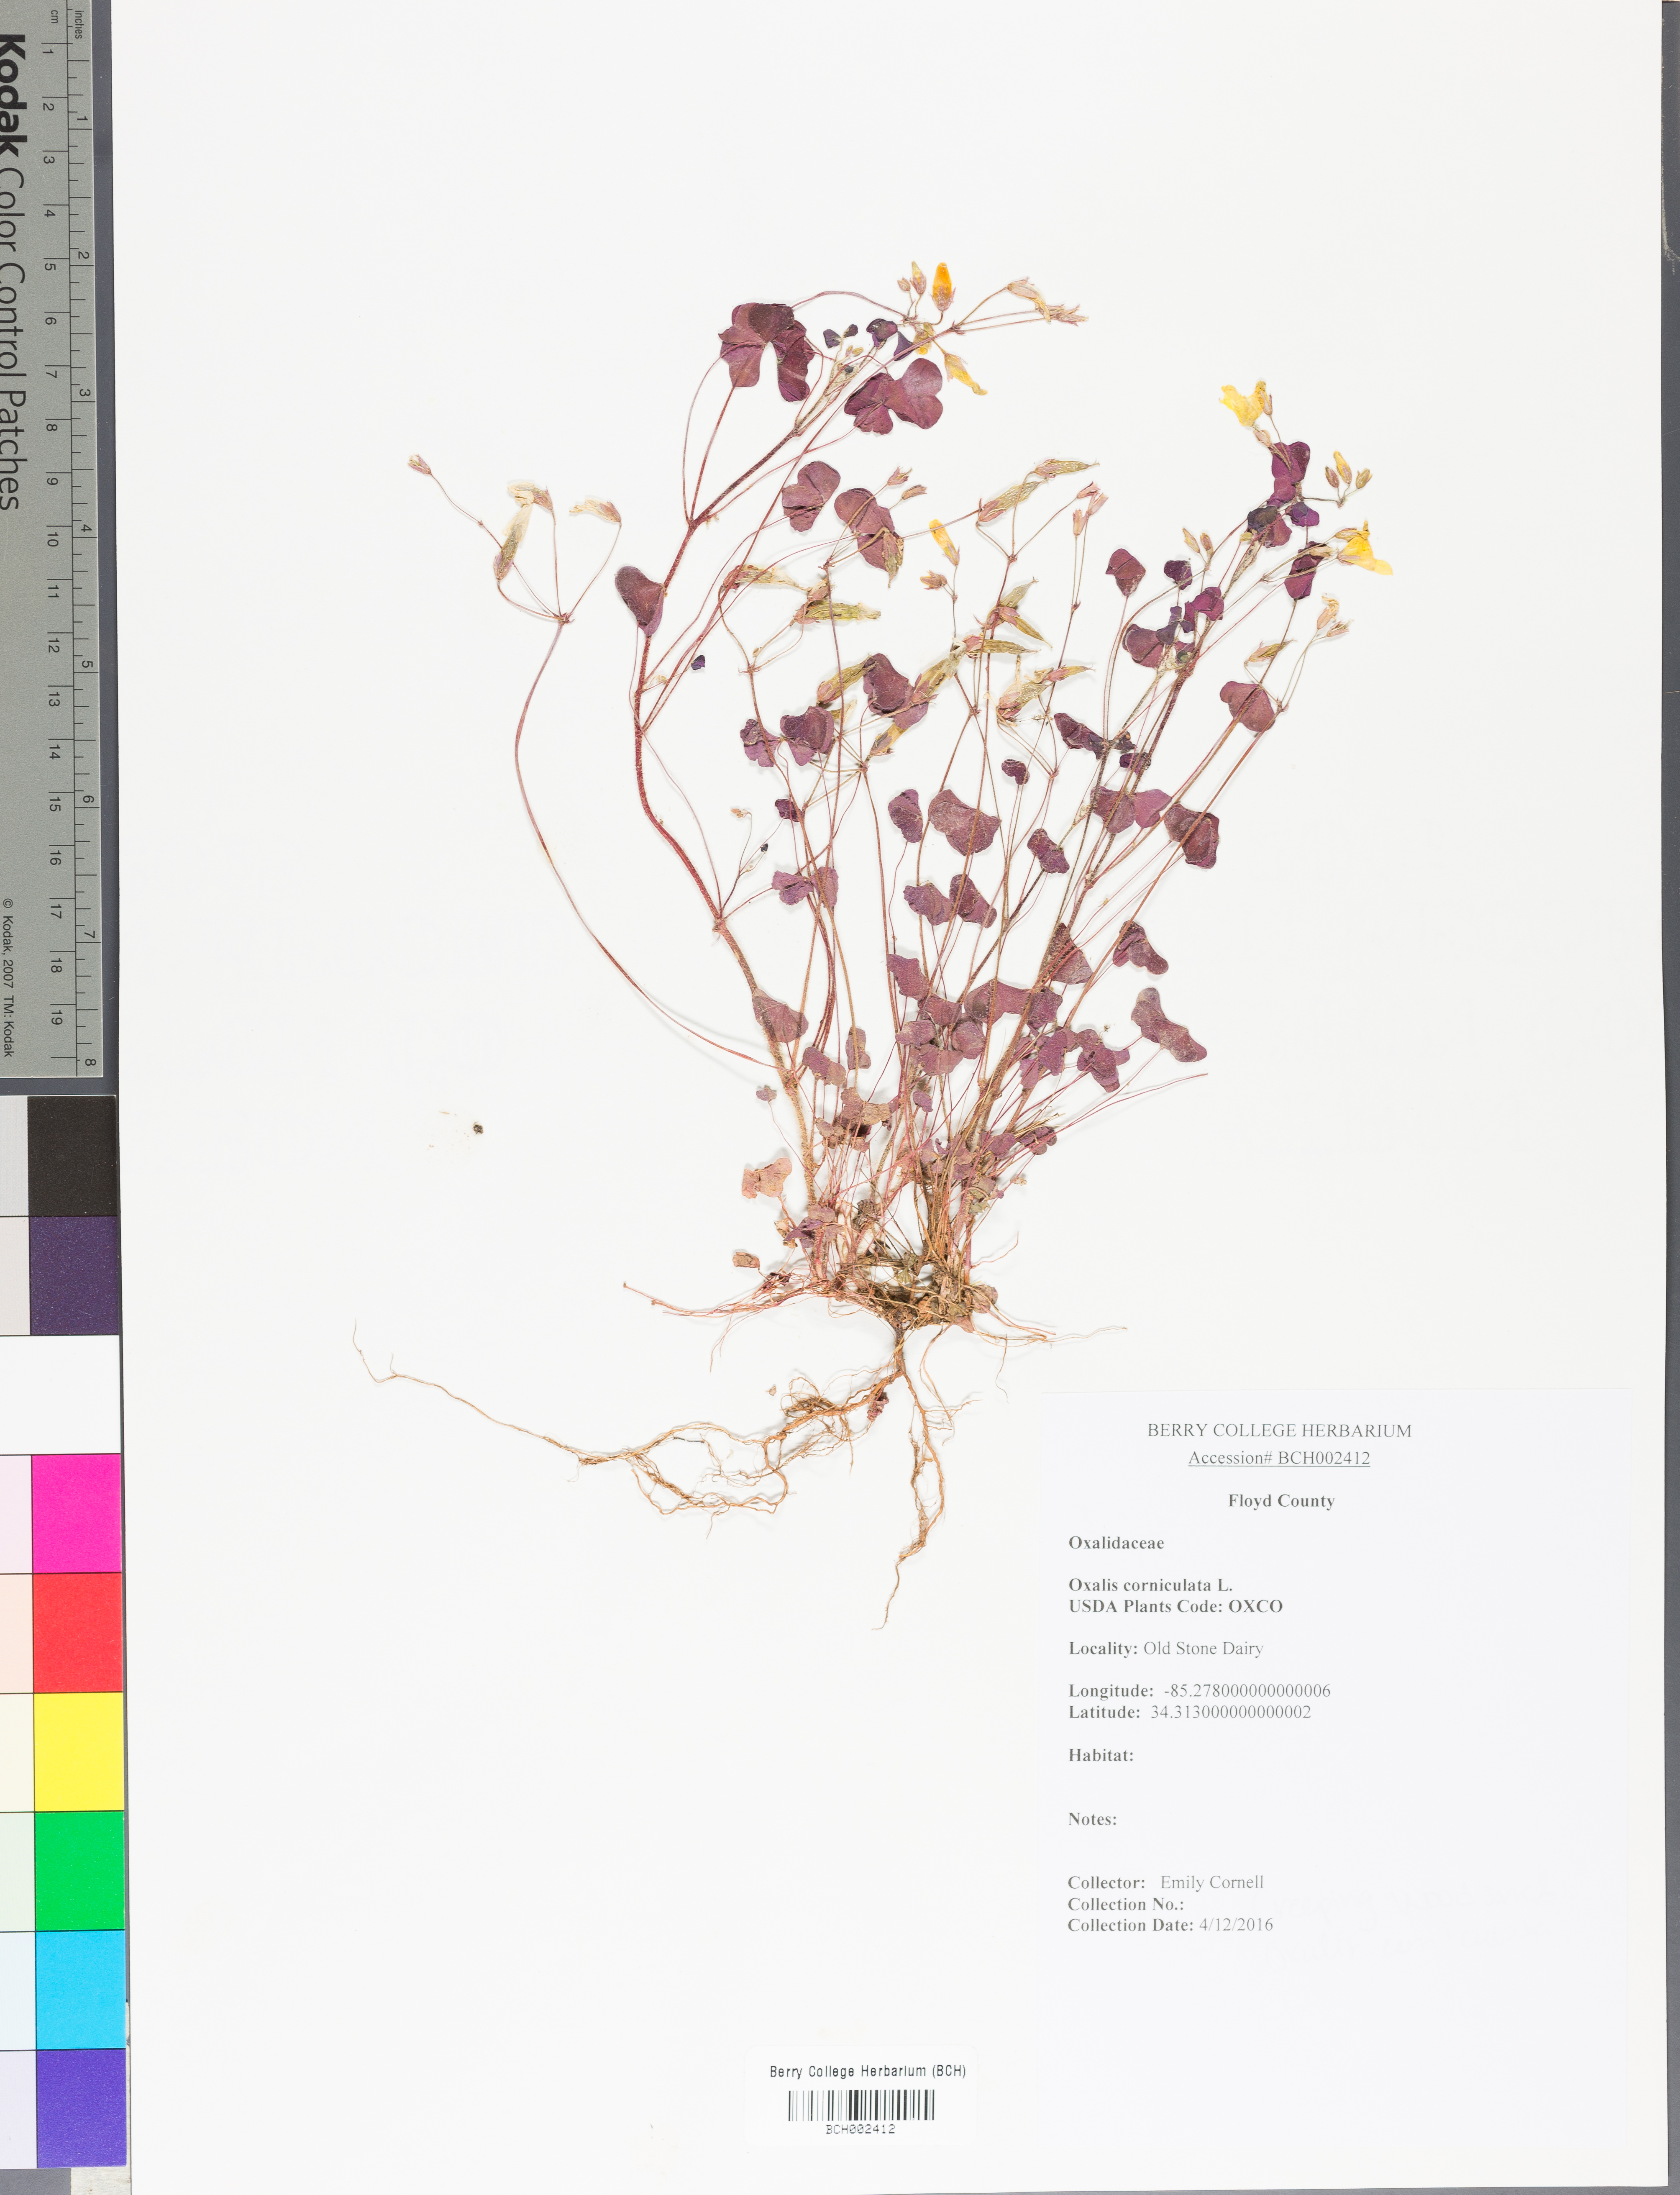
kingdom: Plantae
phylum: Tracheophyta
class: Magnoliopsida
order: Oxalidales
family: Oxalidaceae
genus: Oxalis
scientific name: Oxalis corniculata
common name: Procumbent yellow-sorrel
